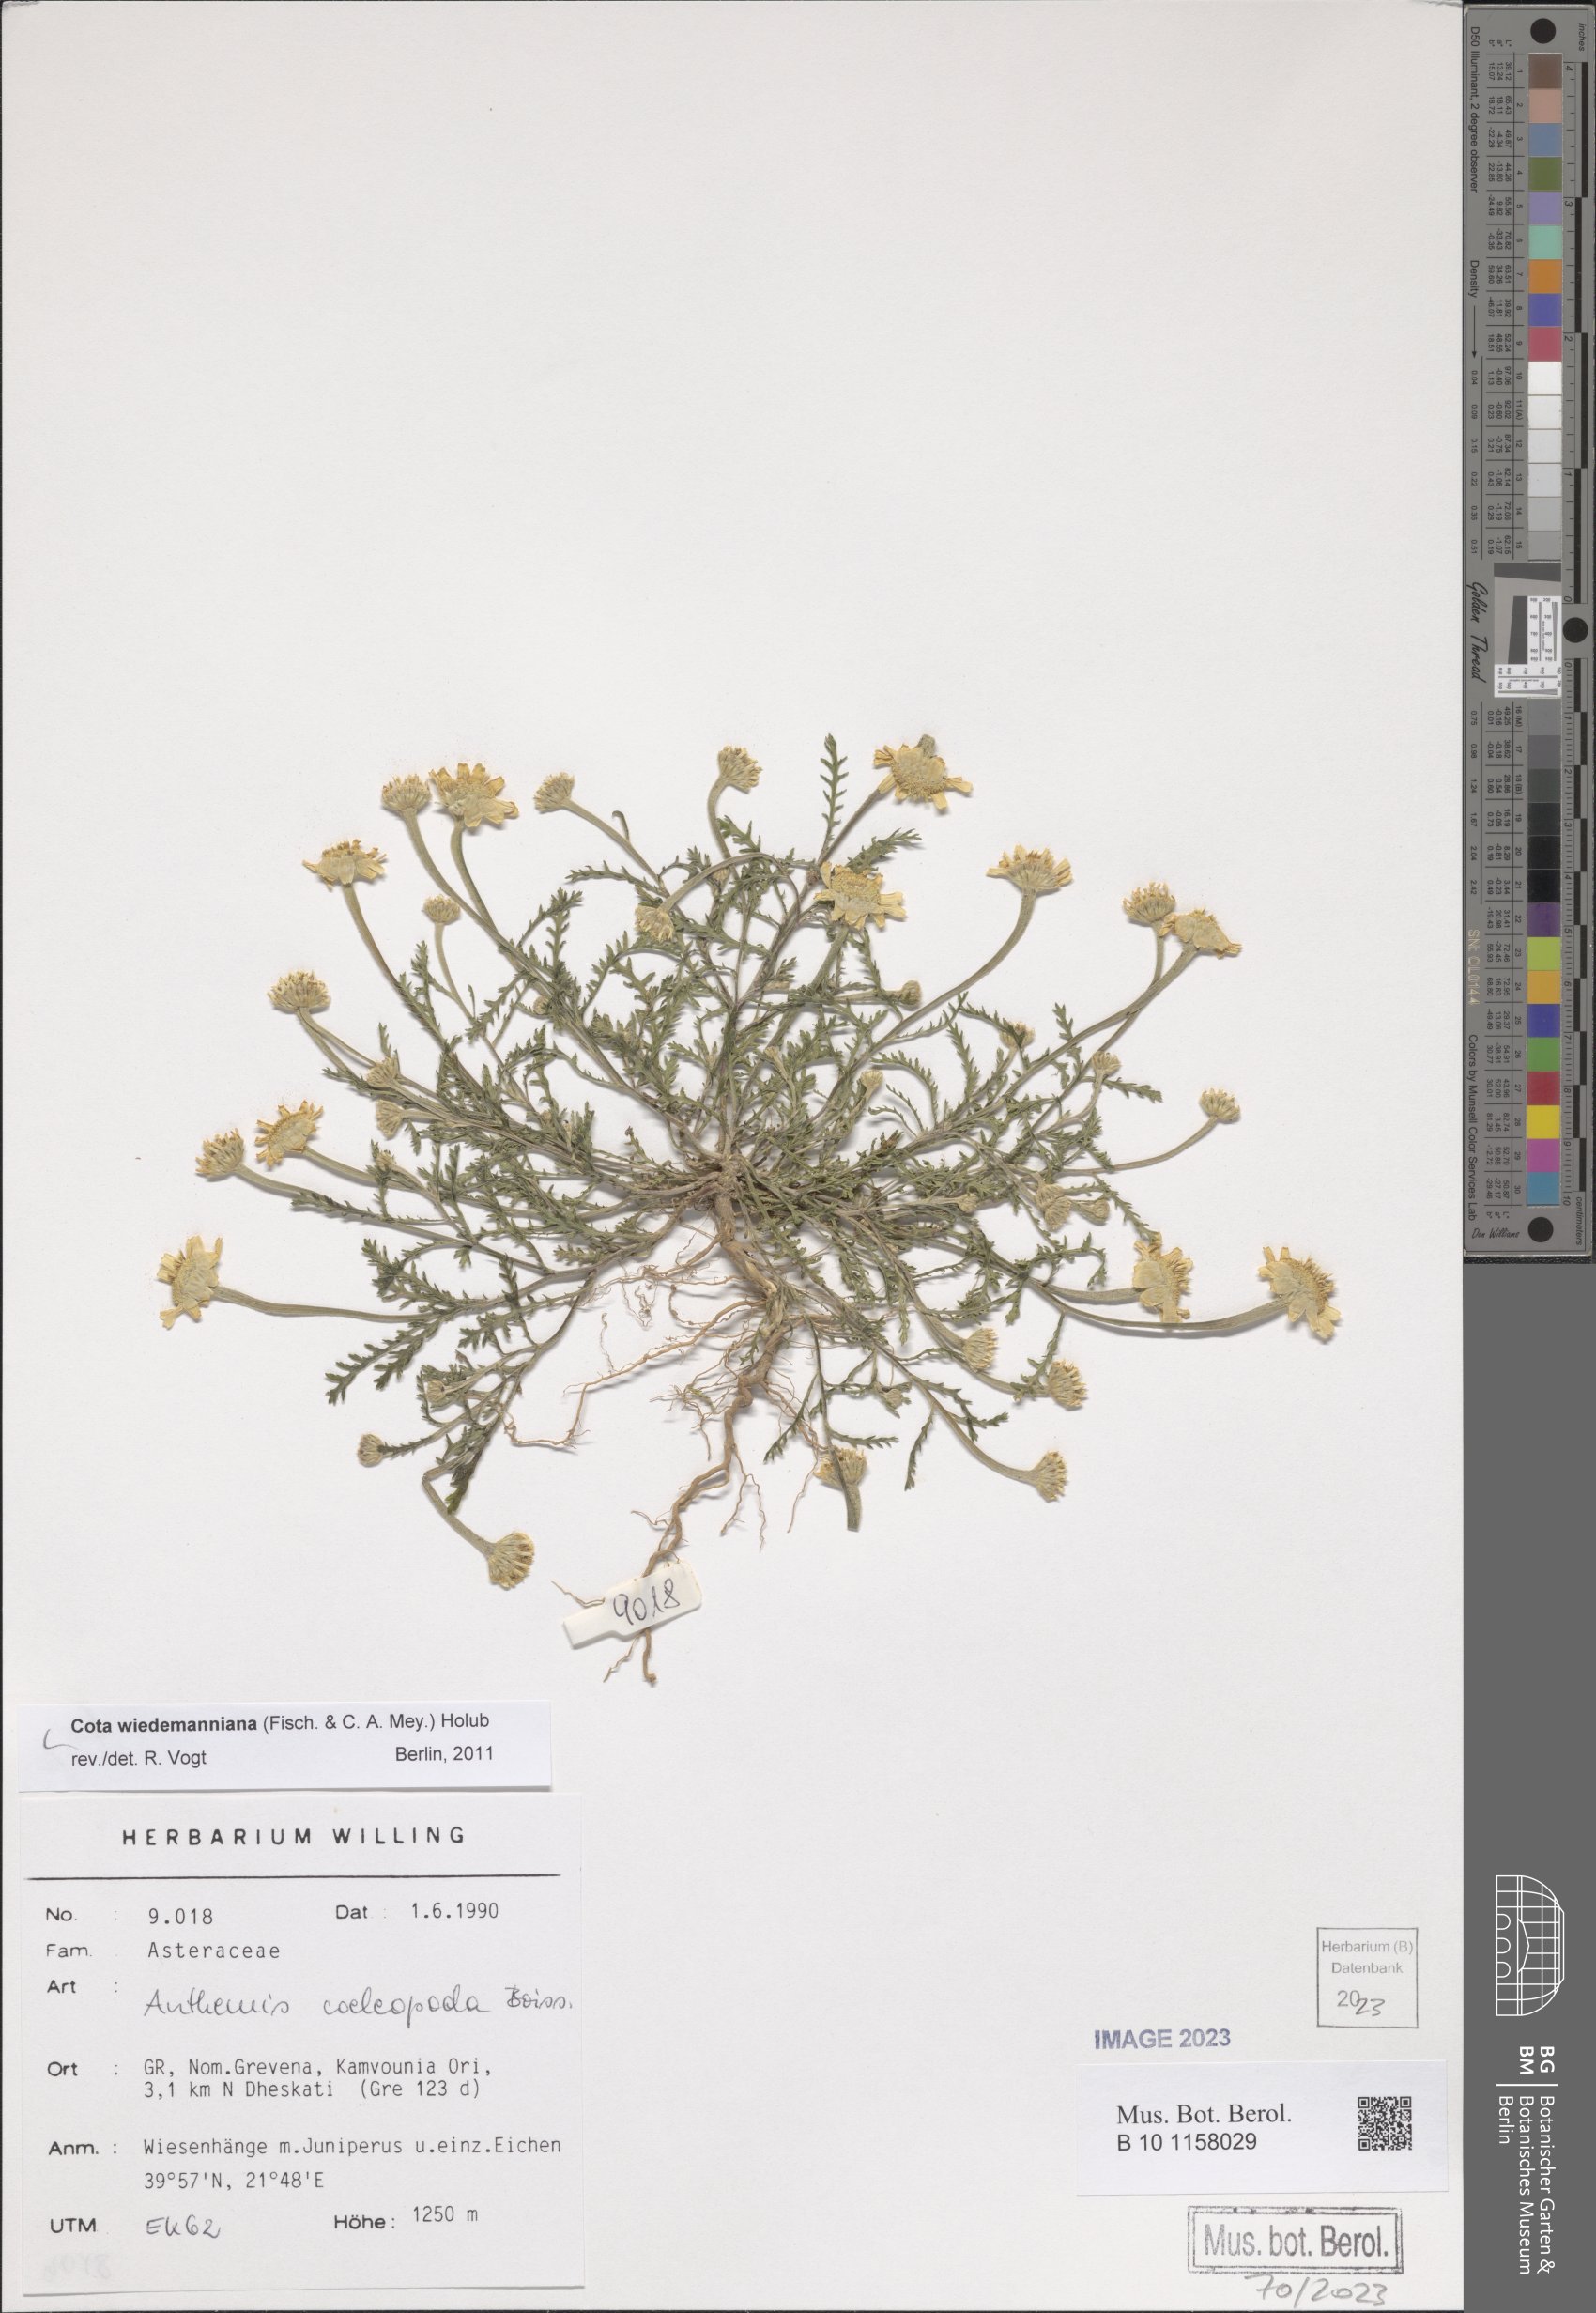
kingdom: Plantae
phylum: Tracheophyta
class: Magnoliopsida
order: Asterales
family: Asteraceae
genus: Cota
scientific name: Cota wiedemanniana
